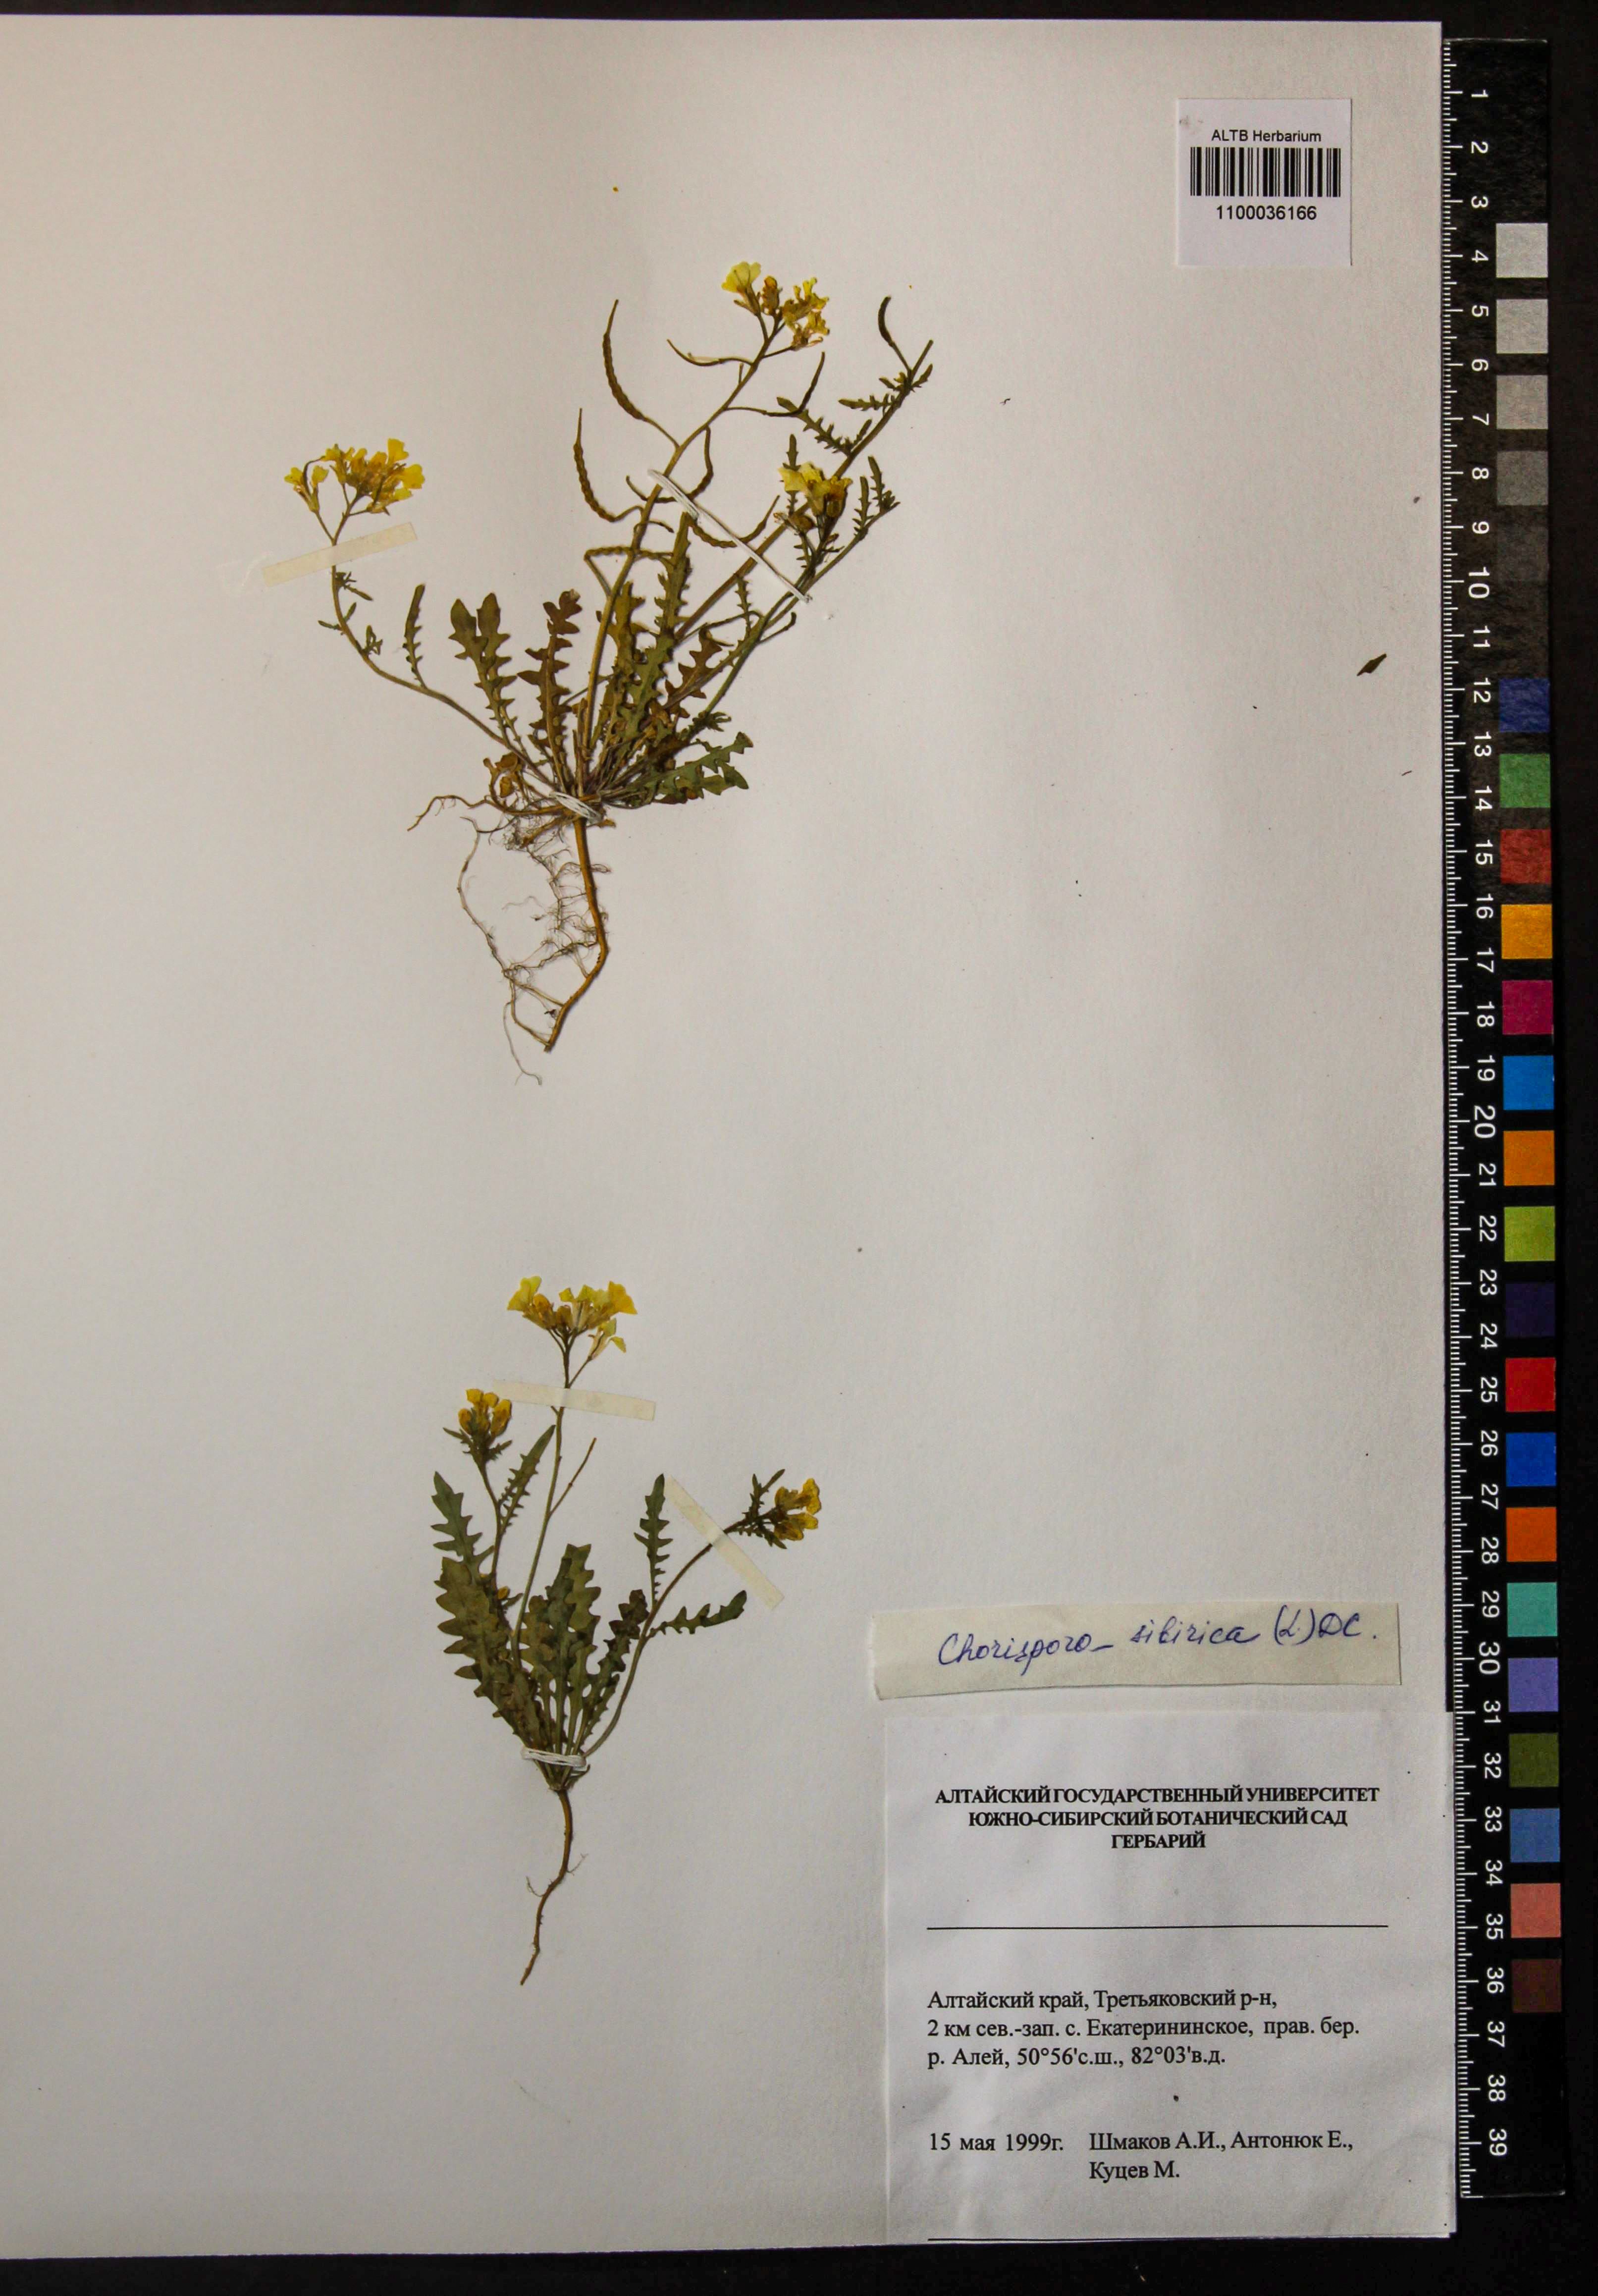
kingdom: Plantae
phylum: Tracheophyta
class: Magnoliopsida
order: Brassicales
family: Brassicaceae
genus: Chorispora
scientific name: Chorispora sibirica
